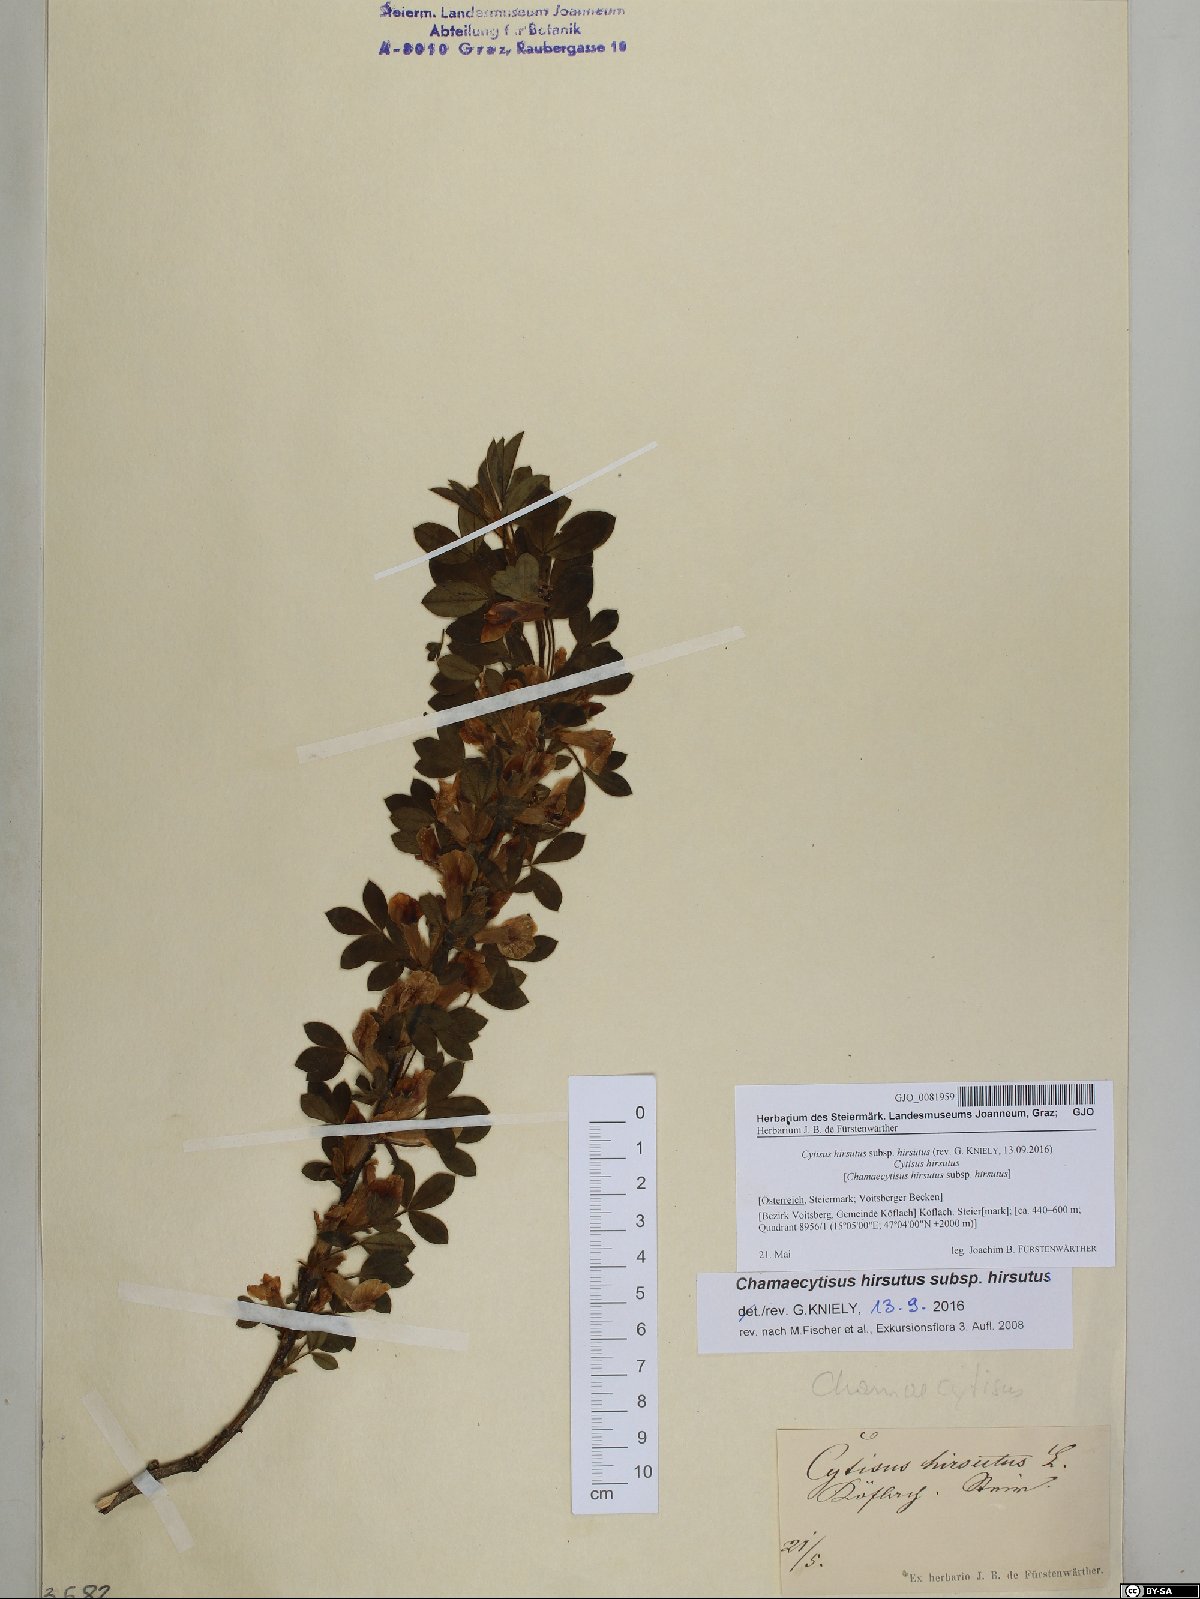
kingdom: Plantae
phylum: Tracheophyta
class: Magnoliopsida
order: Fabales
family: Fabaceae
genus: Chamaecytisus
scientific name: Chamaecytisus hirsutus
